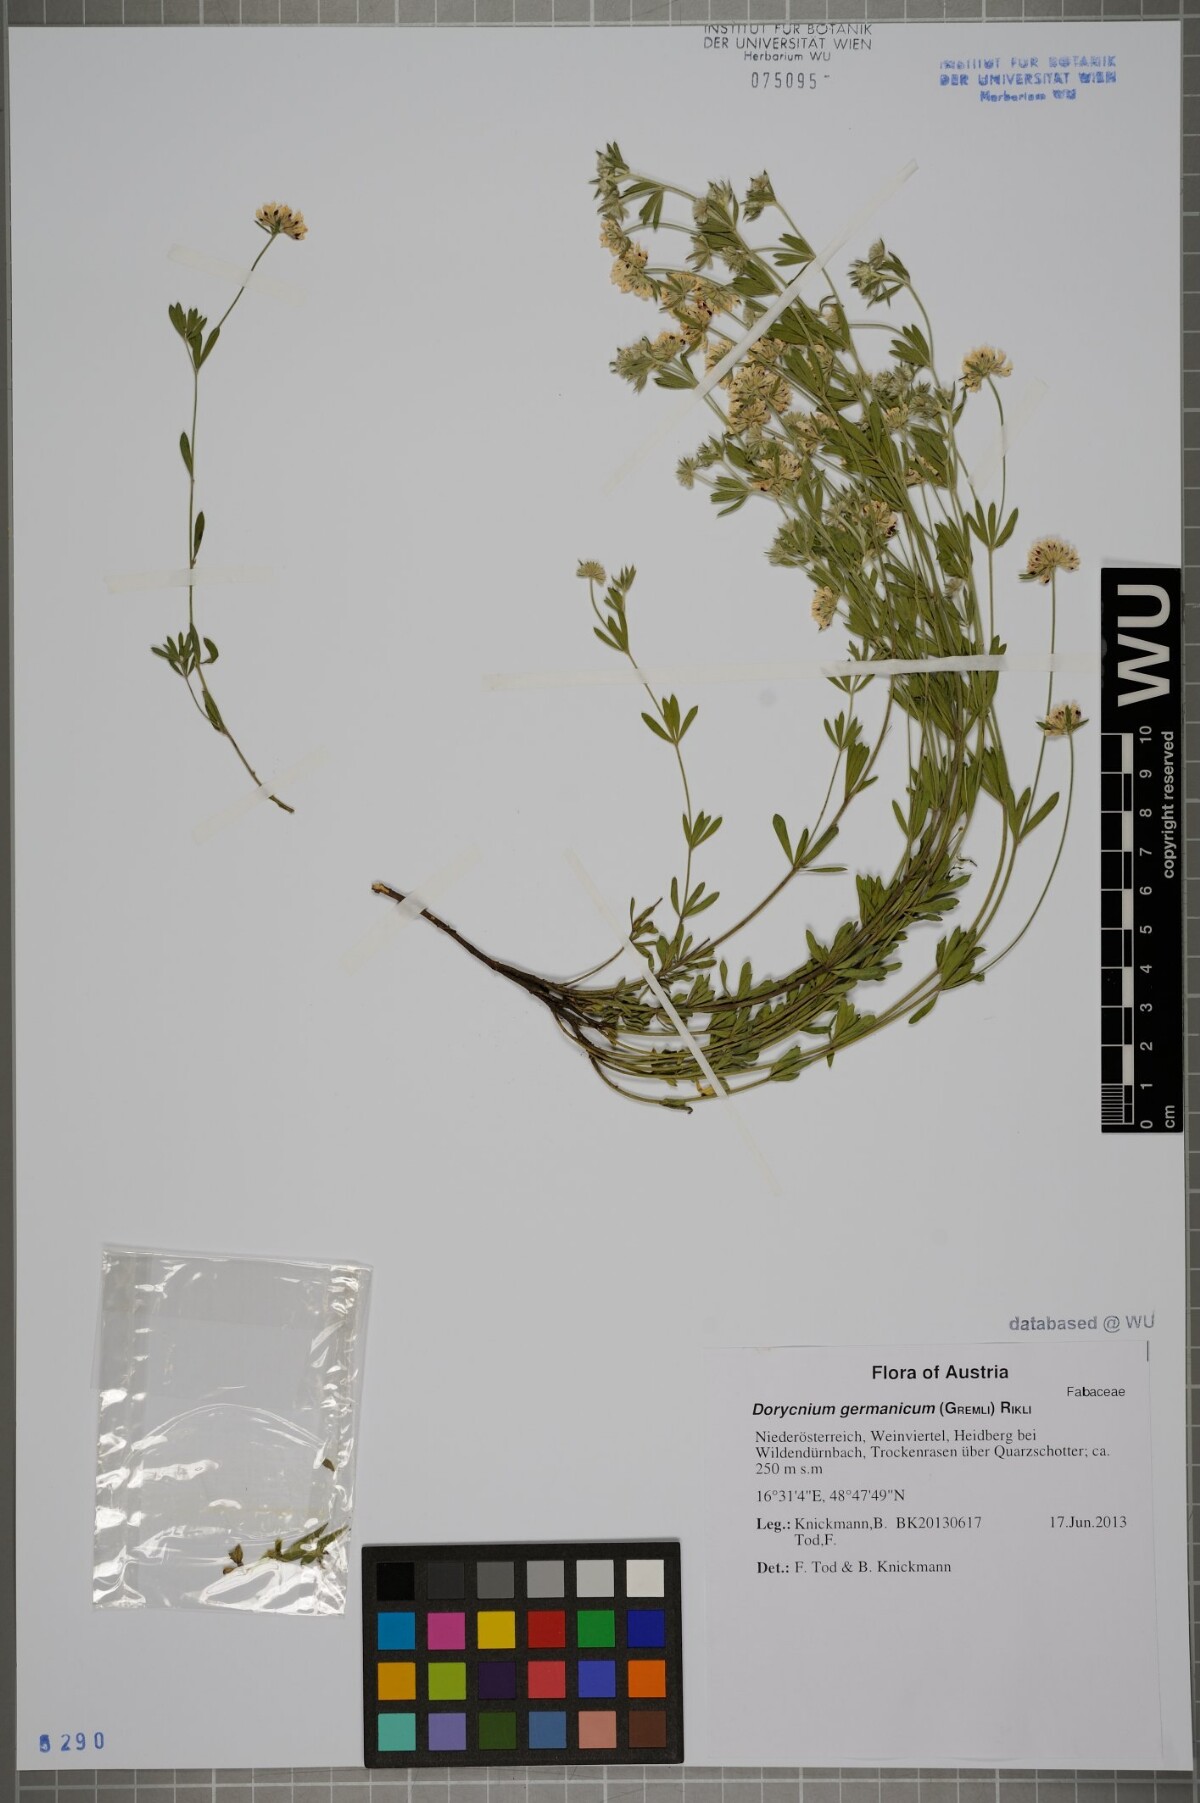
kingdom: Plantae
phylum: Tracheophyta
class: Magnoliopsida
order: Fabales
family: Fabaceae
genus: Lotus
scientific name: Lotus germanicus
